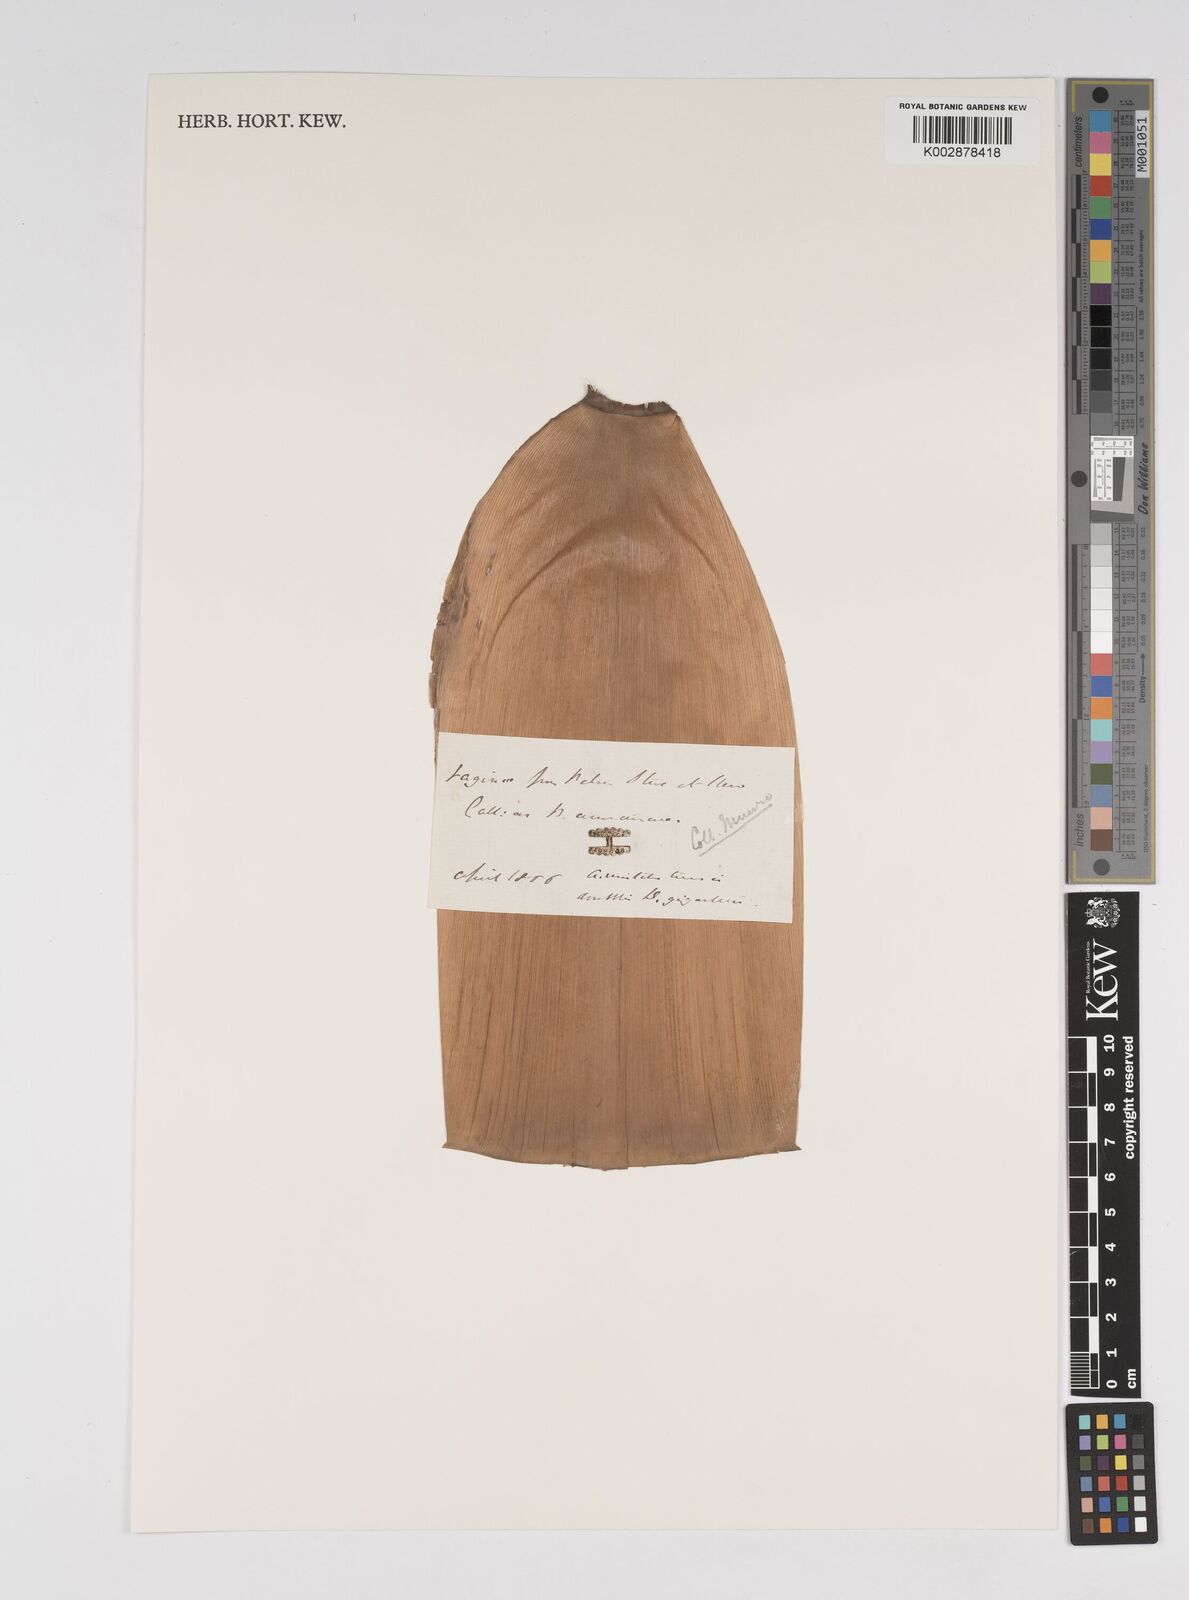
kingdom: Plantae
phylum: Tracheophyta
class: Liliopsida
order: Poales
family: Poaceae
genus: Dendrocalamus
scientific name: Dendrocalamus giganteus
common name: Giant bamboo
